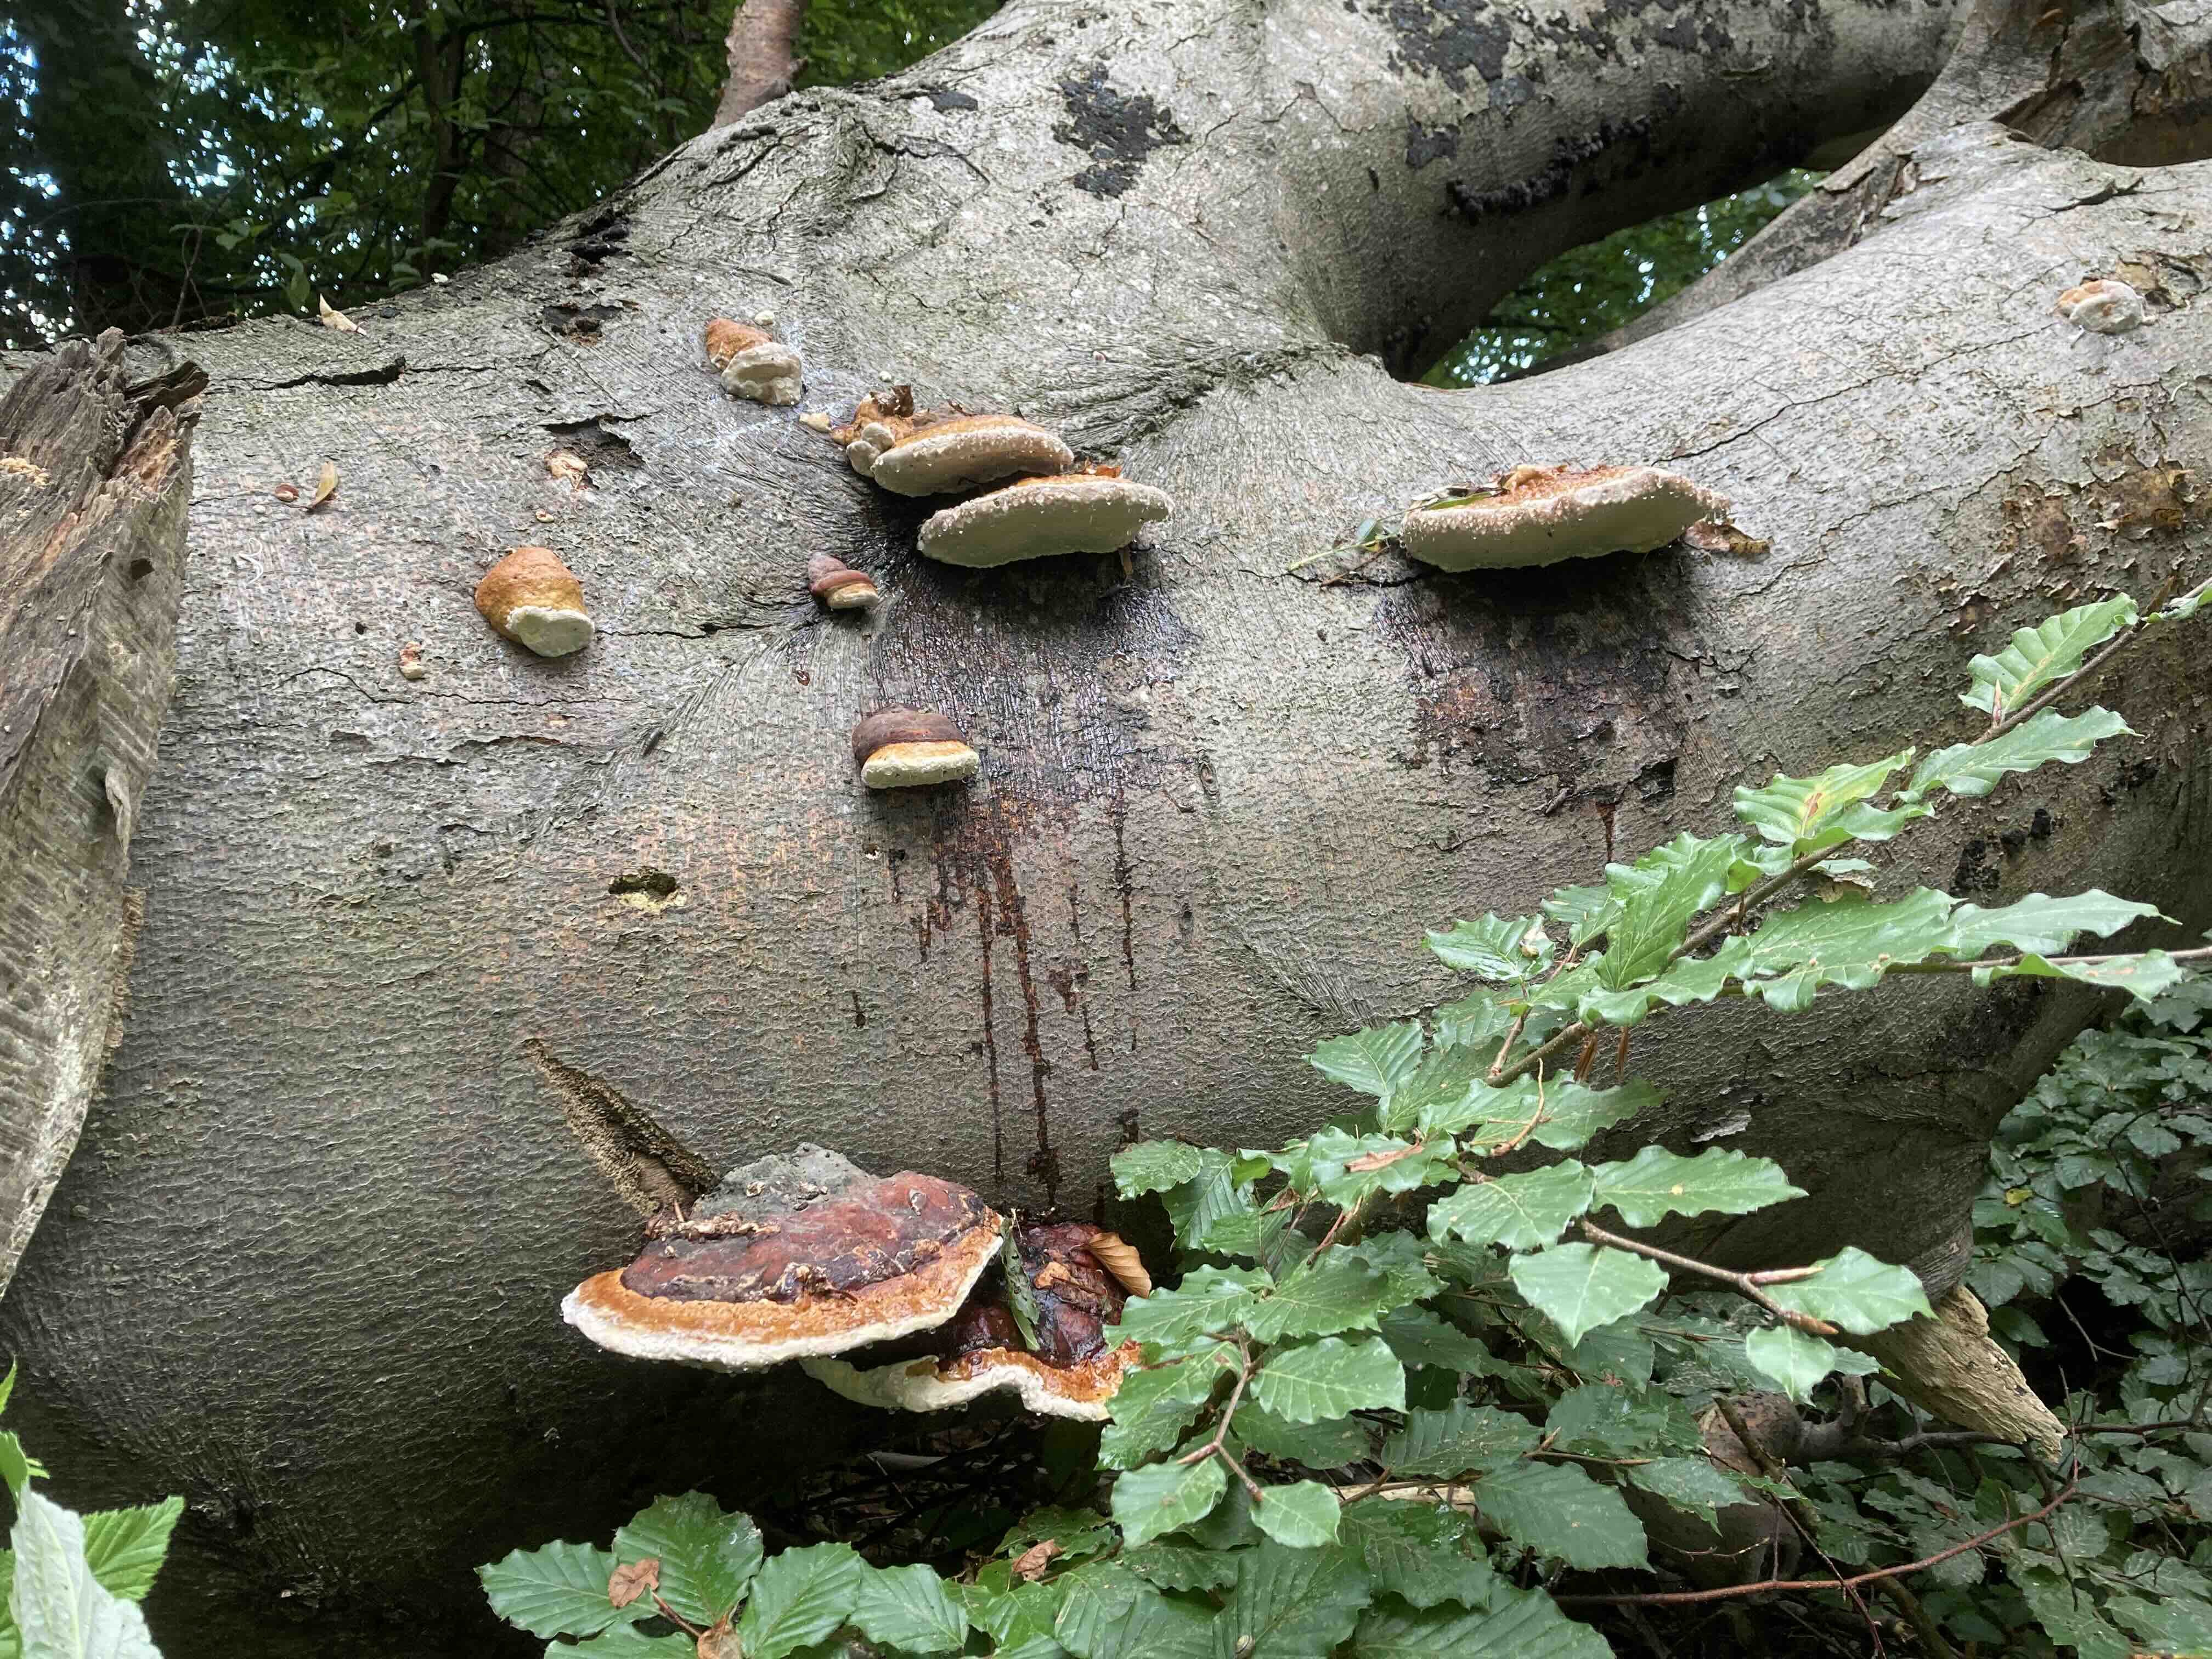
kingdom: Fungi
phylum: Basidiomycota
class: Agaricomycetes
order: Polyporales
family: Fomitopsidaceae
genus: Fomitopsis
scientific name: Fomitopsis pinicola
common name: randbæltet hovporesvamp
